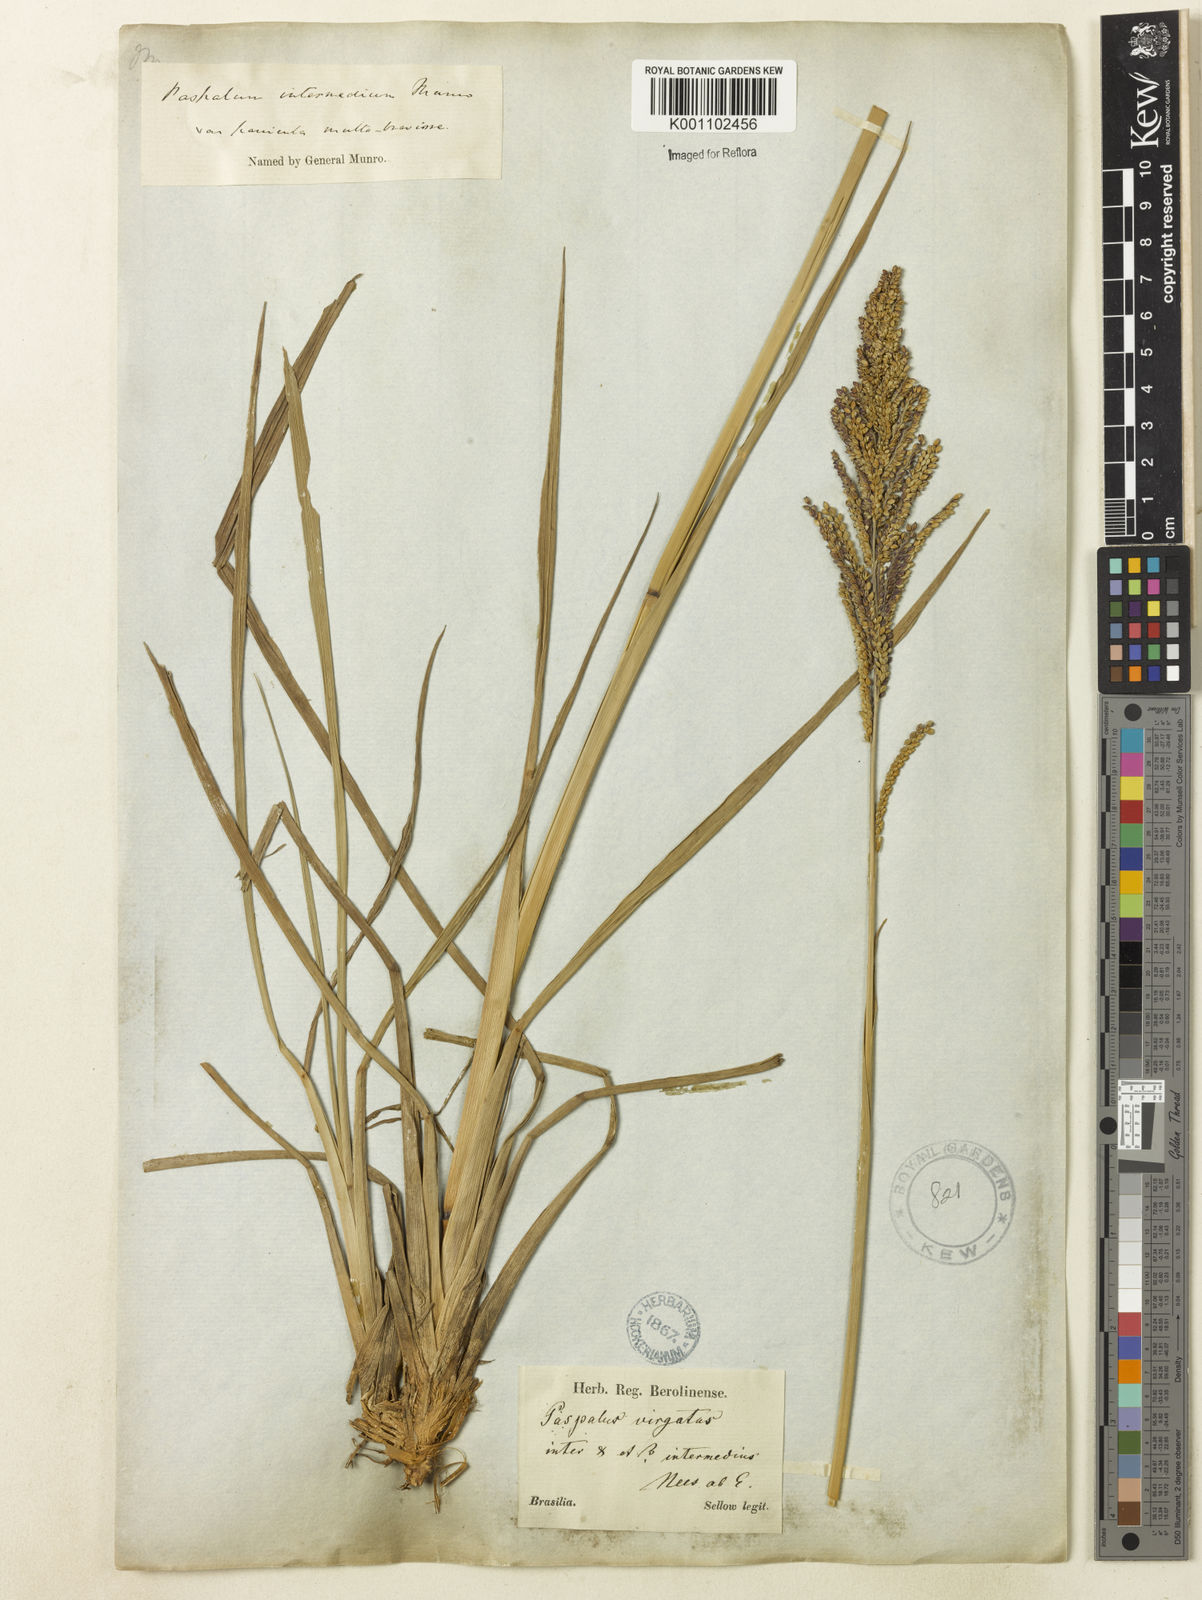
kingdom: Plantae
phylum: Tracheophyta
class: Liliopsida
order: Poales
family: Poaceae
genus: Paspalum
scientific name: Paspalum quadrifarium
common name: Tussock paspalum
